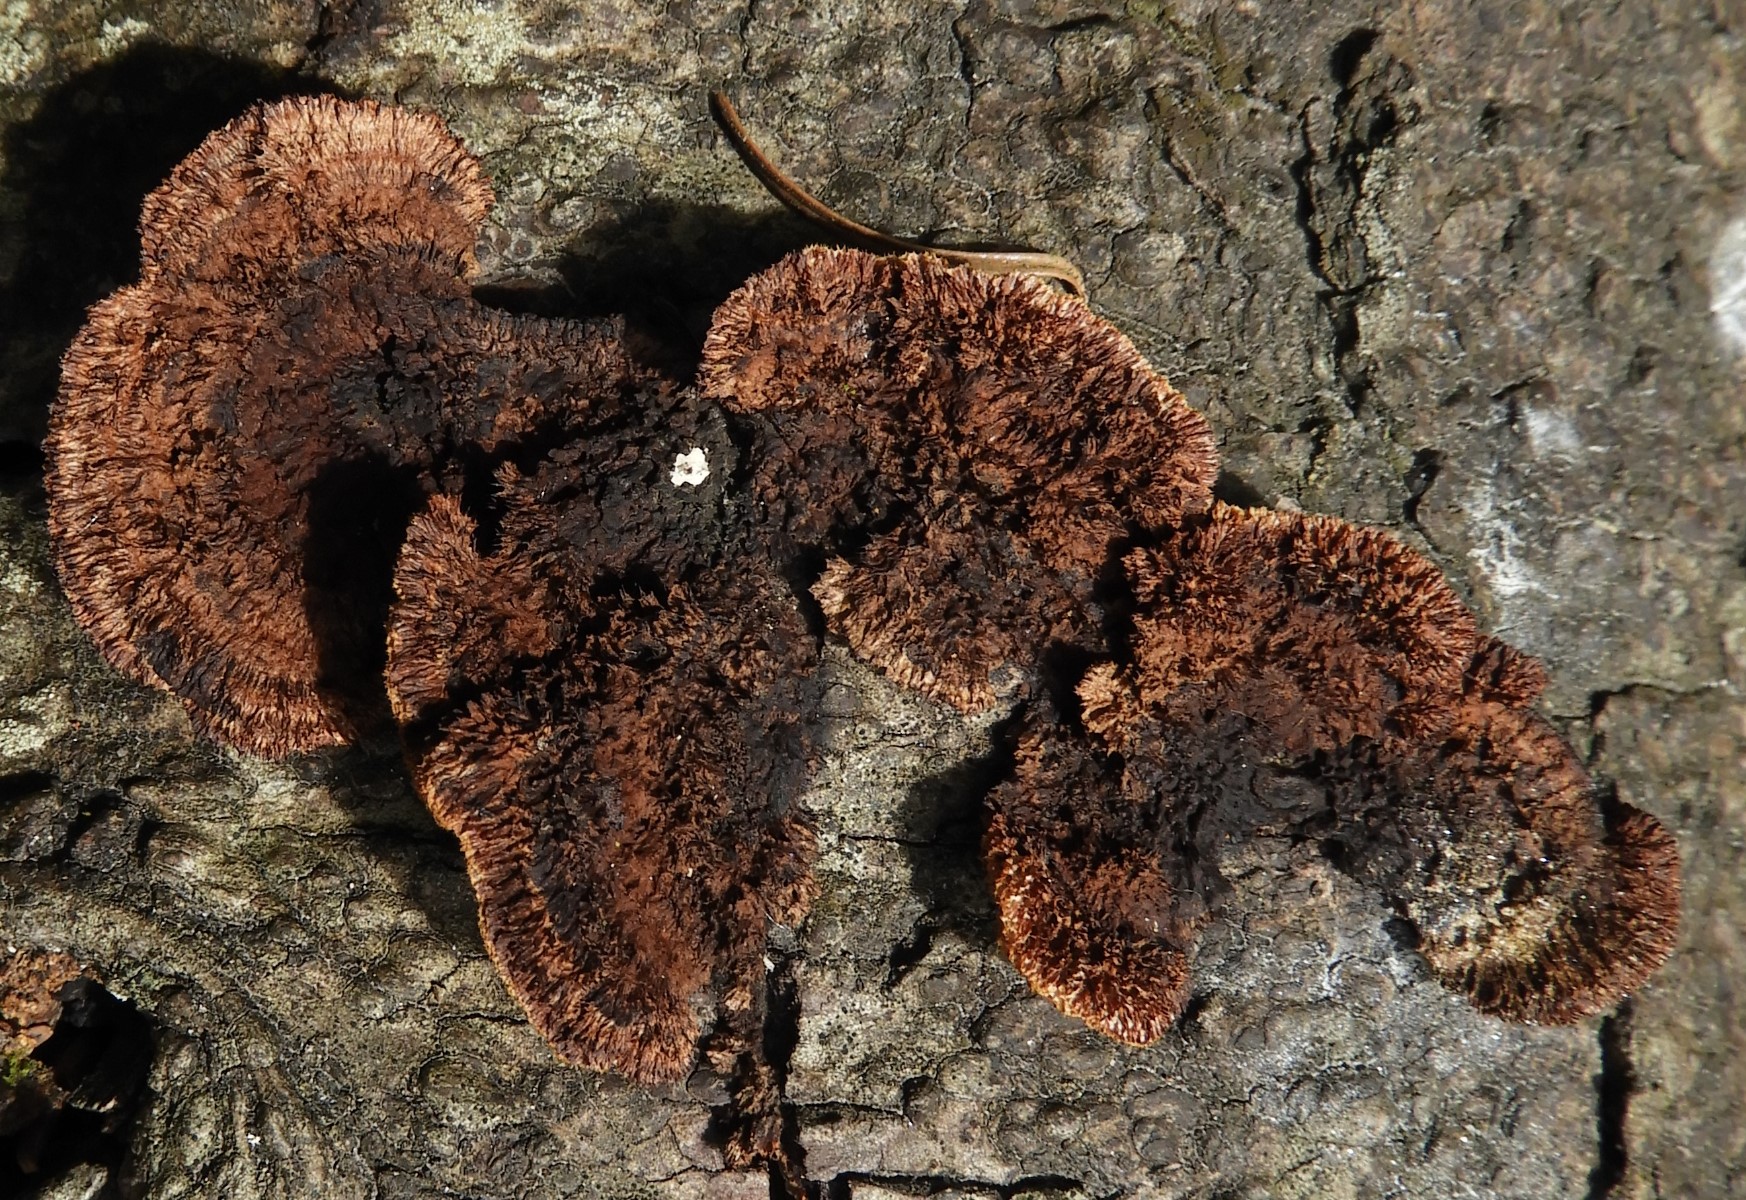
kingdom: Fungi
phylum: Basidiomycota
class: Agaricomycetes
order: Gloeophyllales
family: Gloeophyllaceae
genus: Gloeophyllum
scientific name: Gloeophyllum sepiarium
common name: fyrre-korkhat
